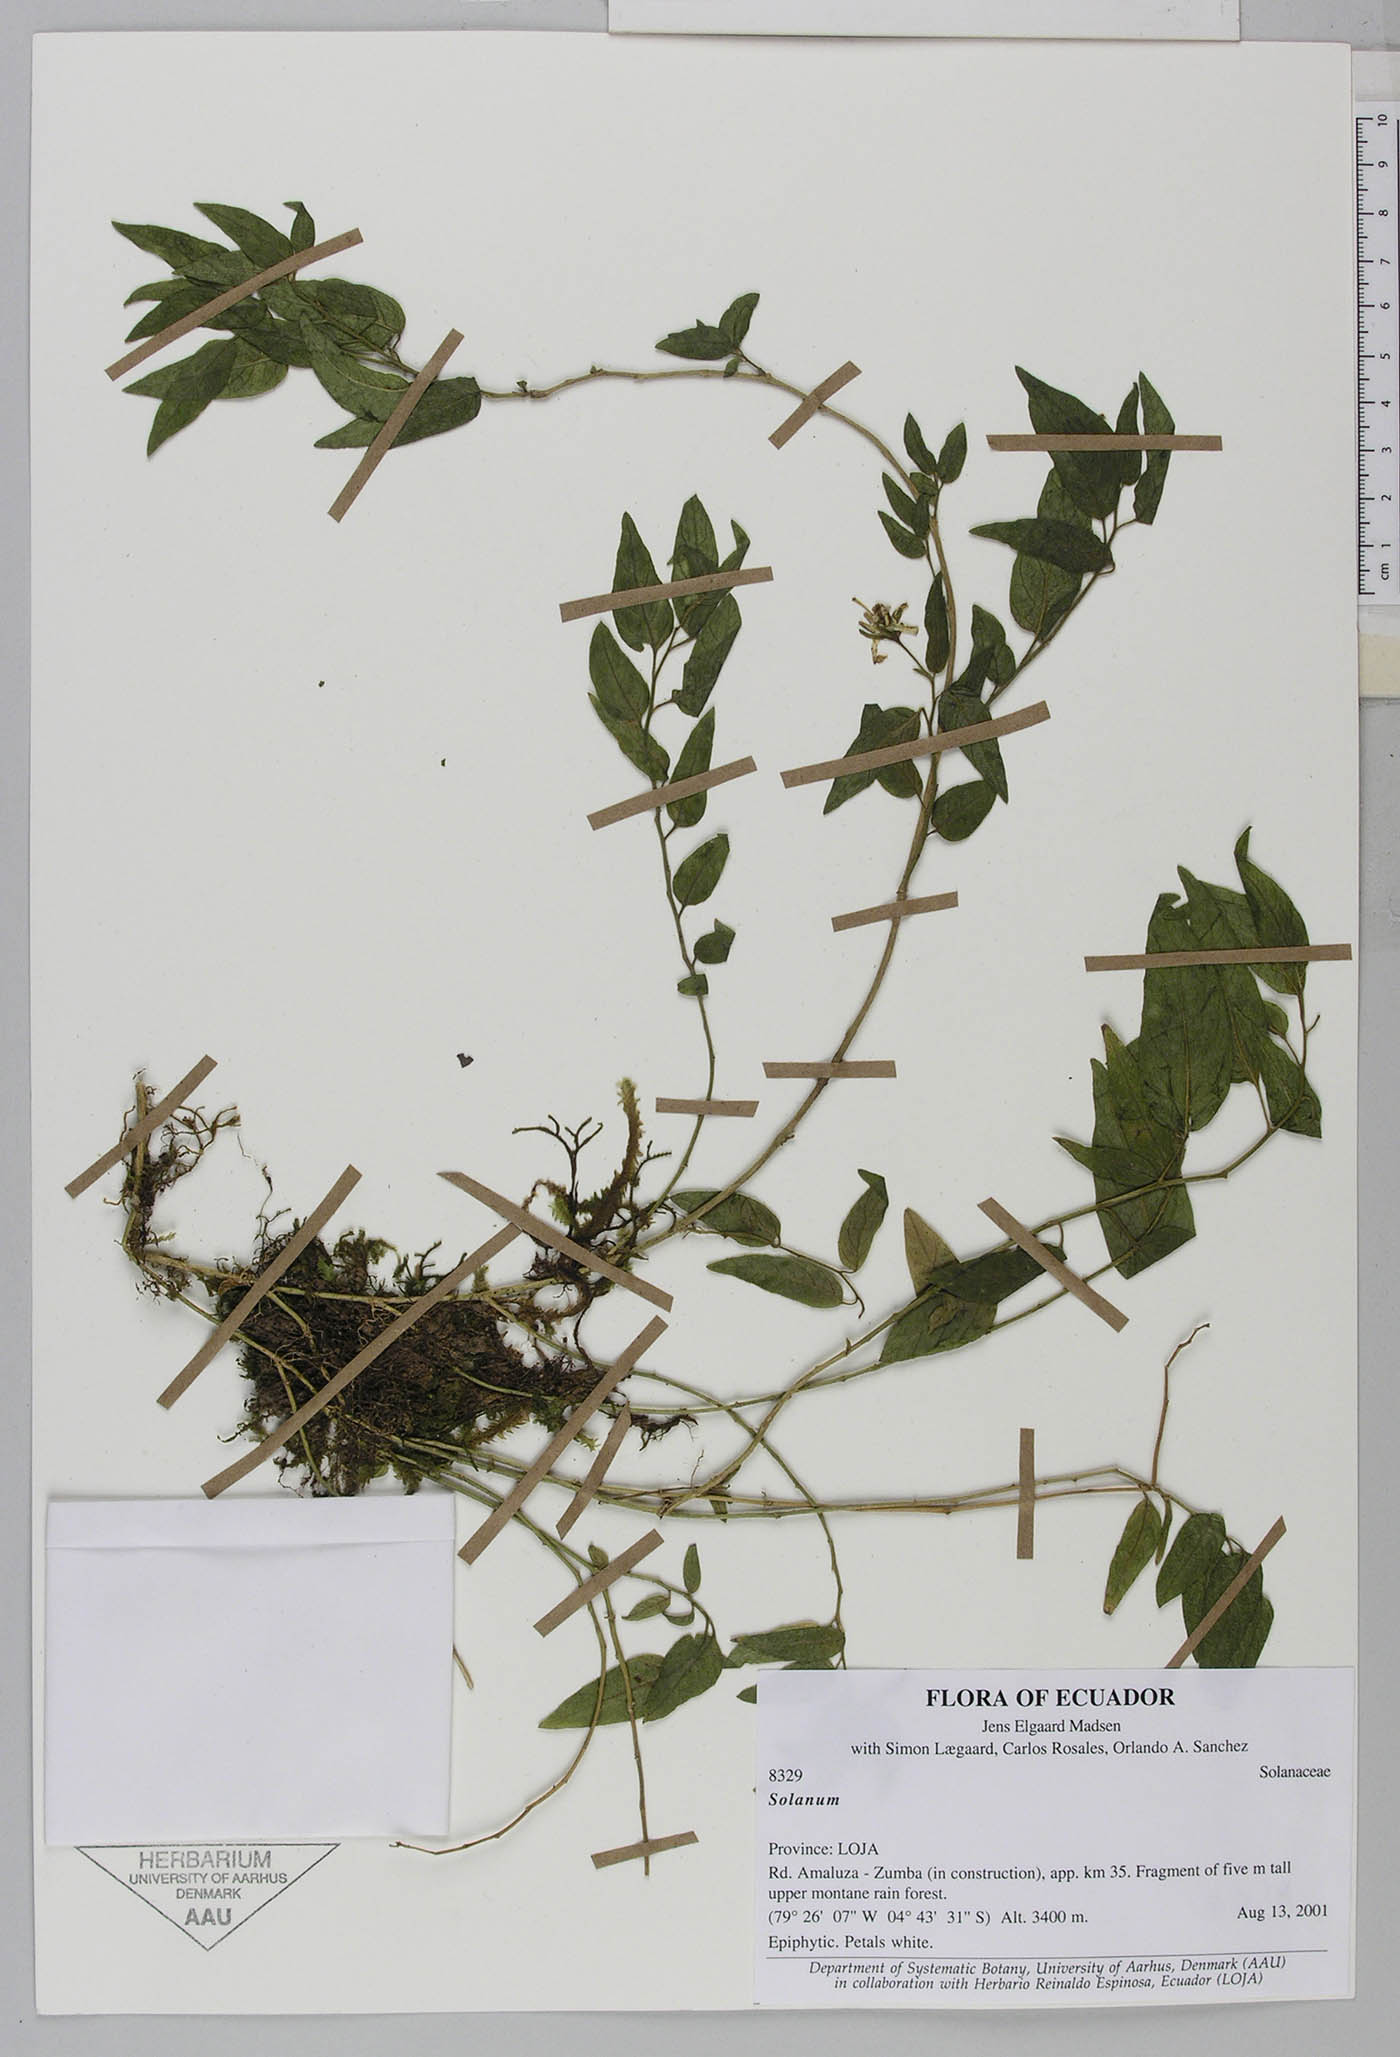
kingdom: Plantae
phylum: Tracheophyta
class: Magnoliopsida
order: Solanales
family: Solanaceae
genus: Solanum
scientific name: Solanum adscendens
